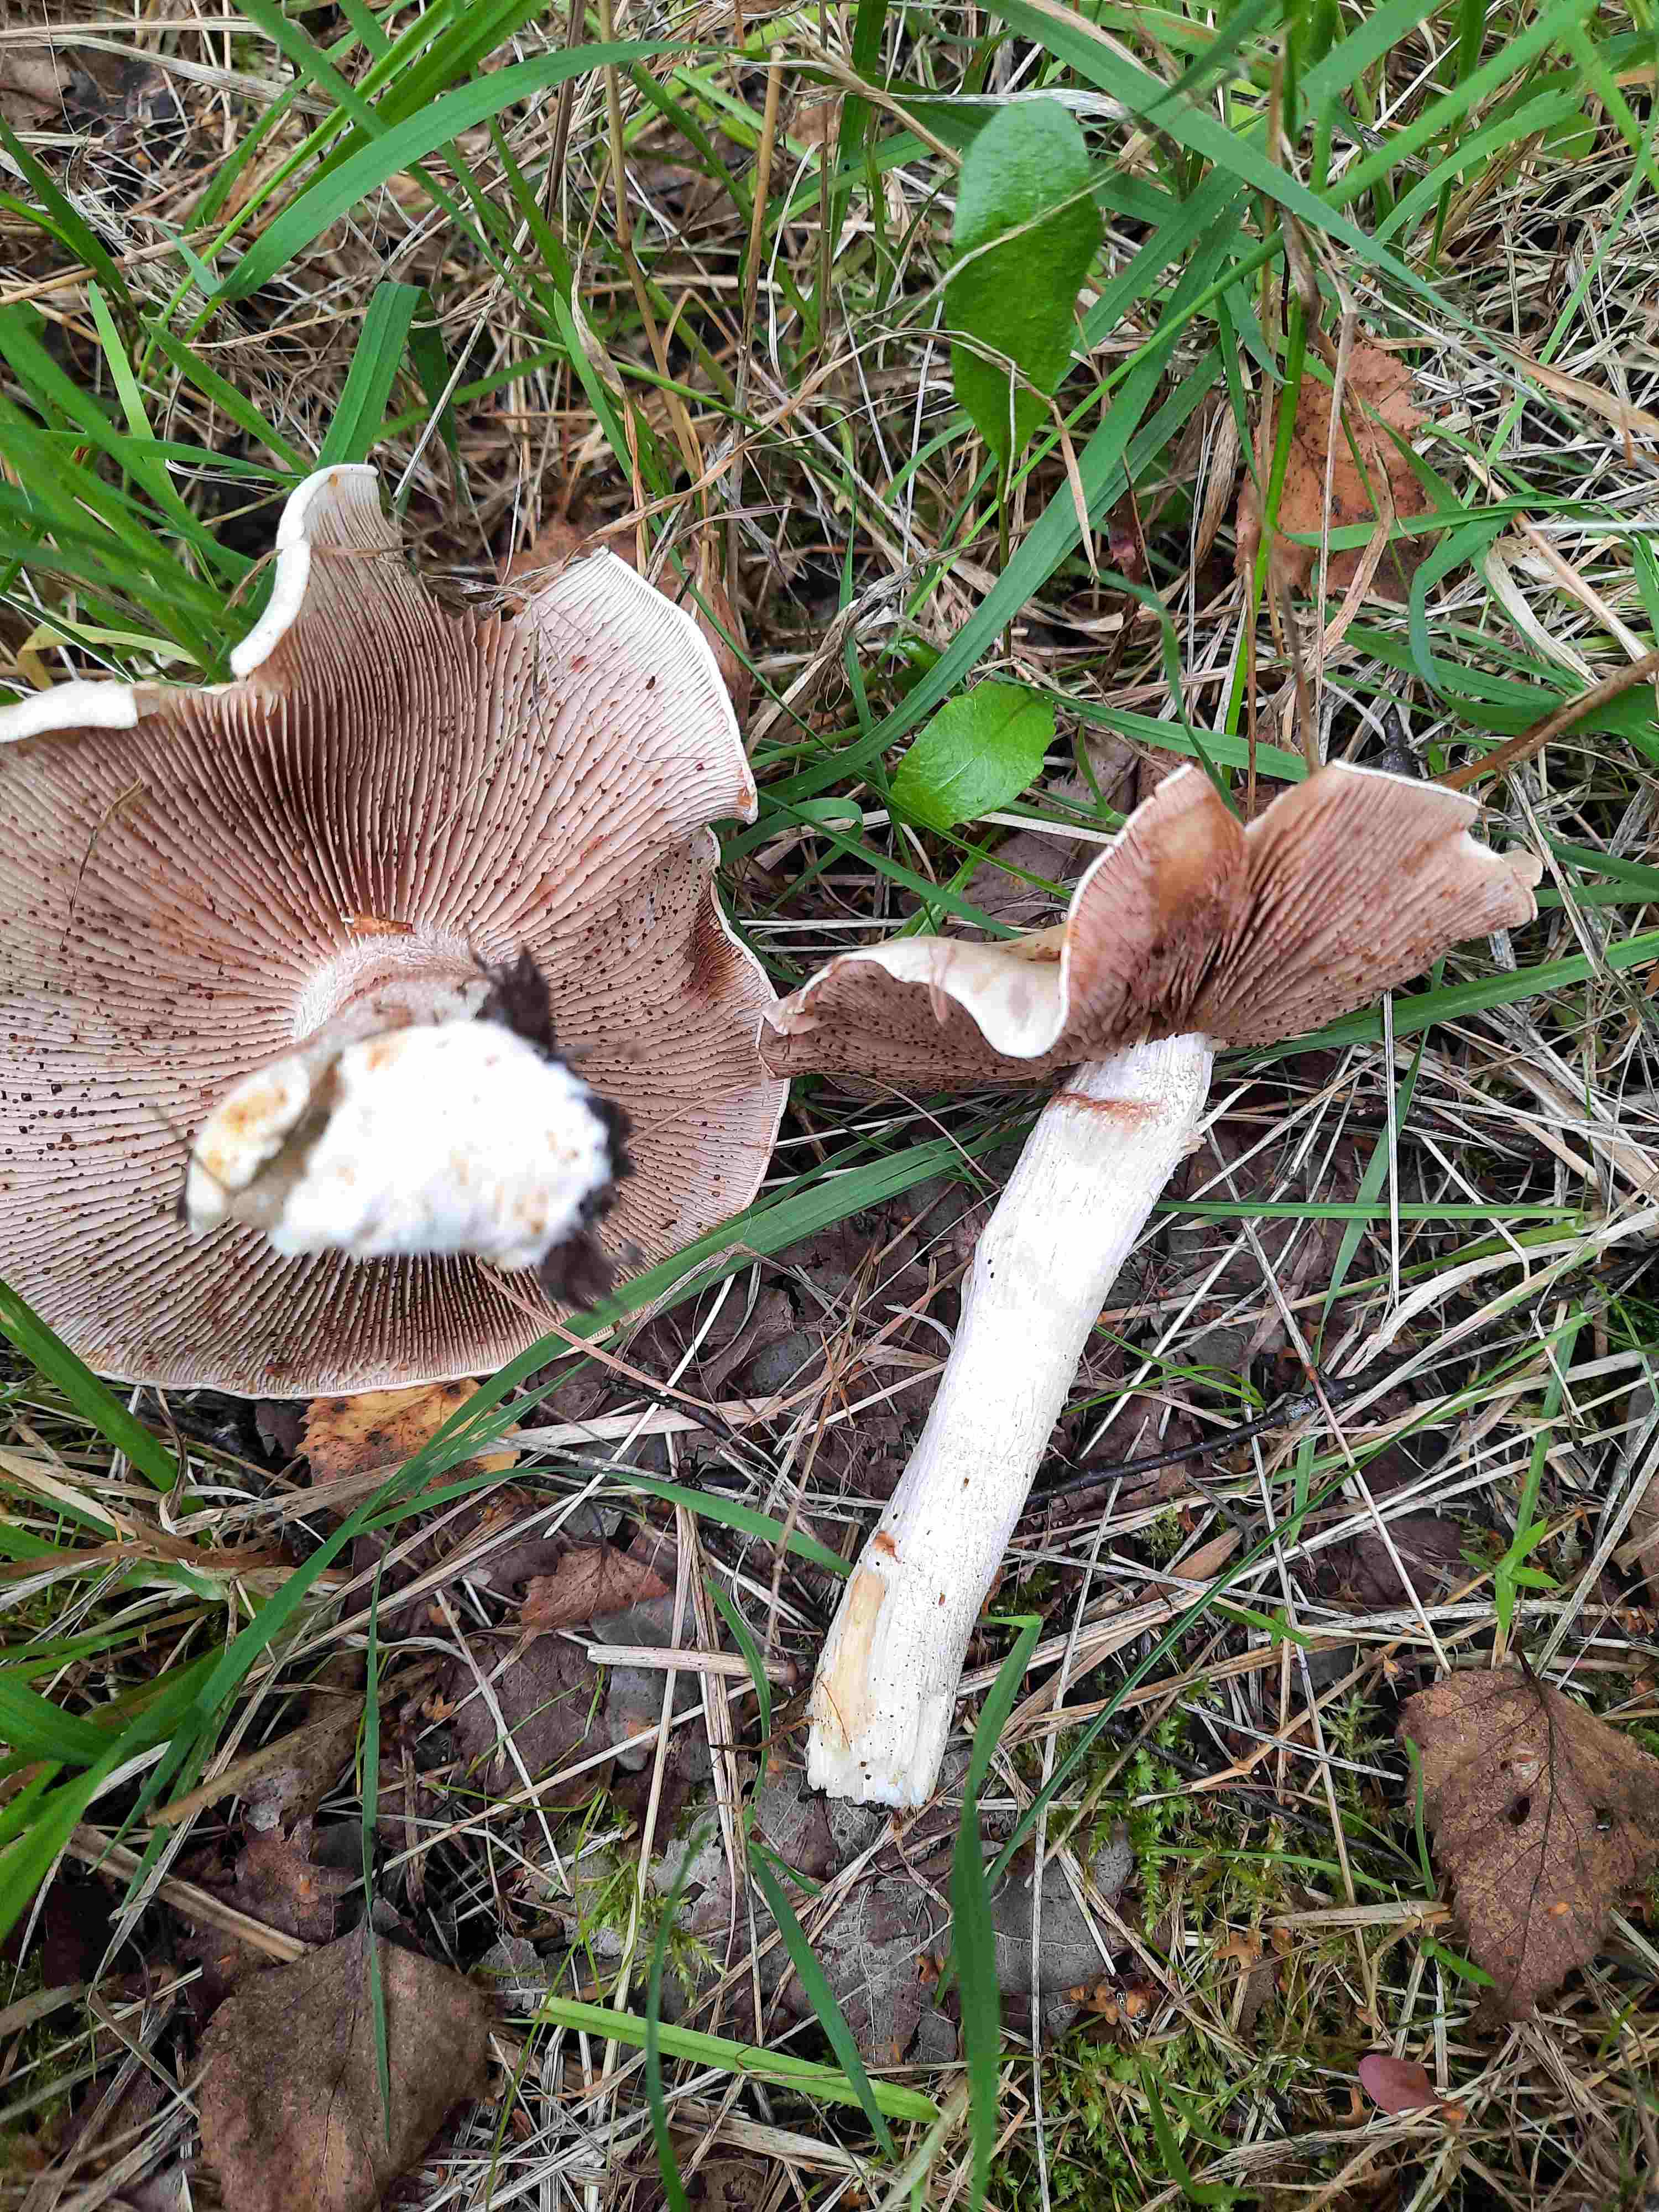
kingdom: Fungi
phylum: Basidiomycota
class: Agaricomycetes
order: Agaricales
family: Hymenogastraceae
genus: Hebeloma
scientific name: Hebeloma
